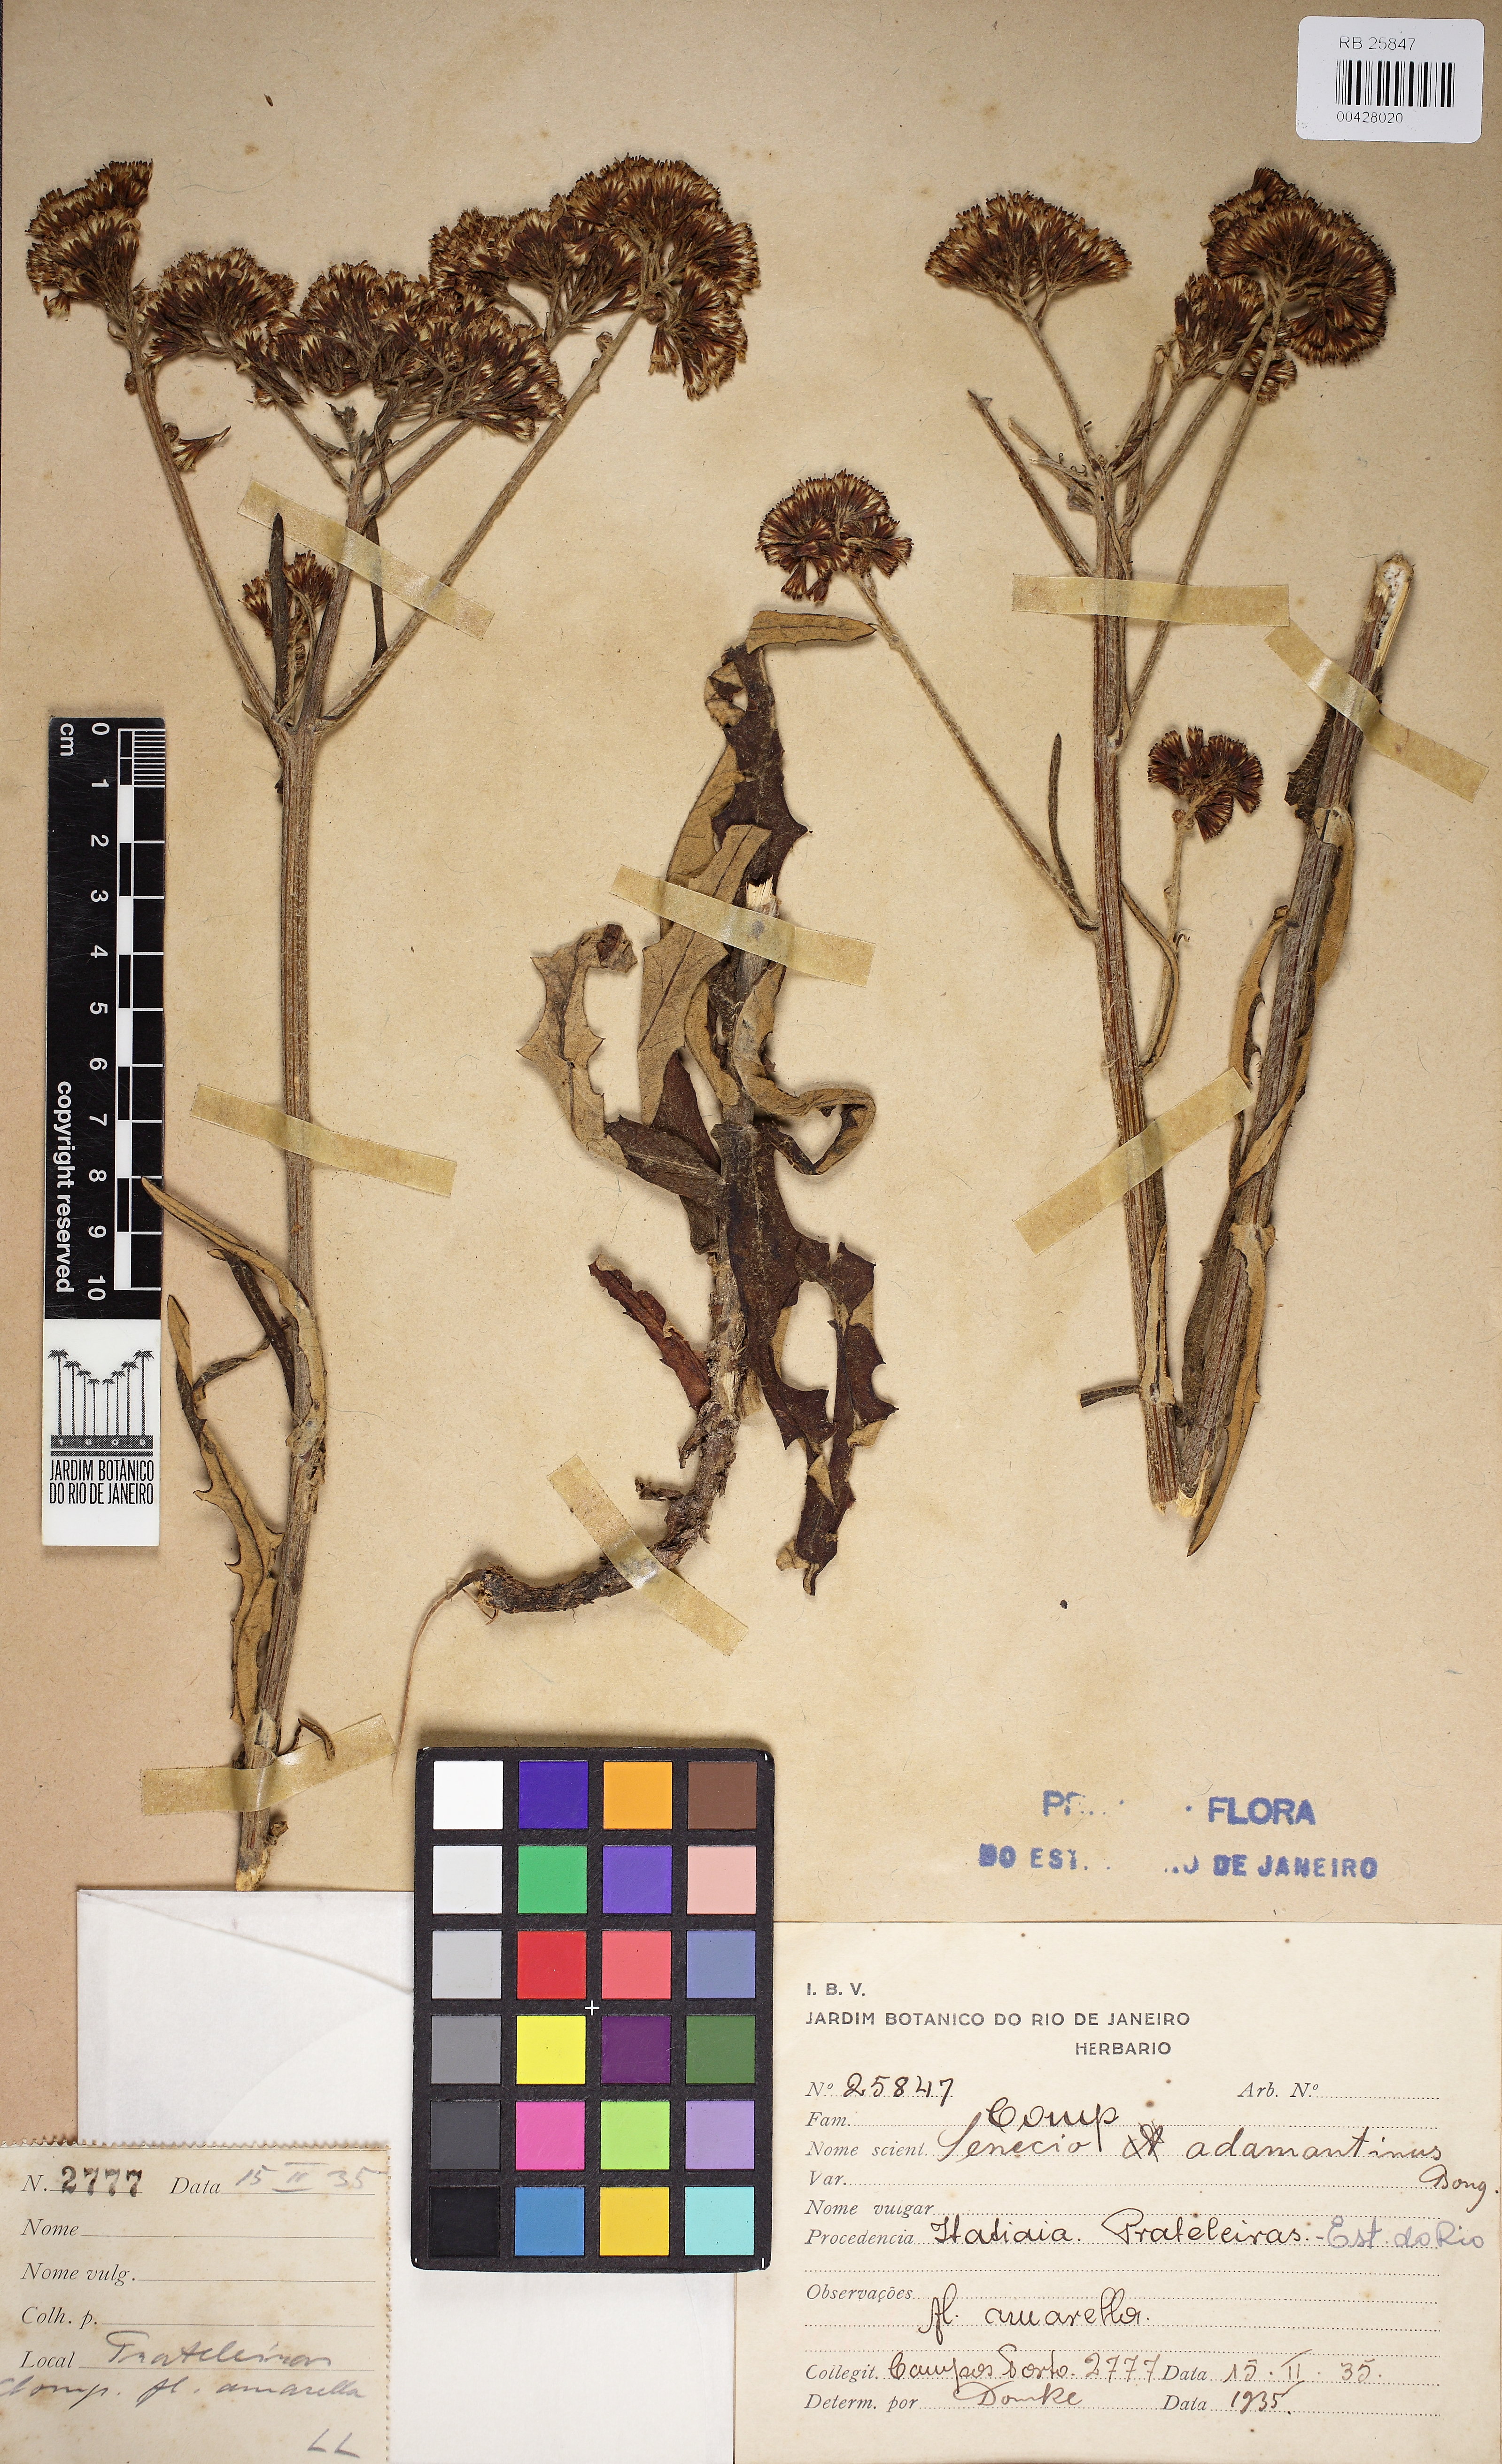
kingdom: Plantae
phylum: Tracheophyta
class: Magnoliopsida
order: Asterales
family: Asteraceae
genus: Senecio
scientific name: Senecio adamantinus
